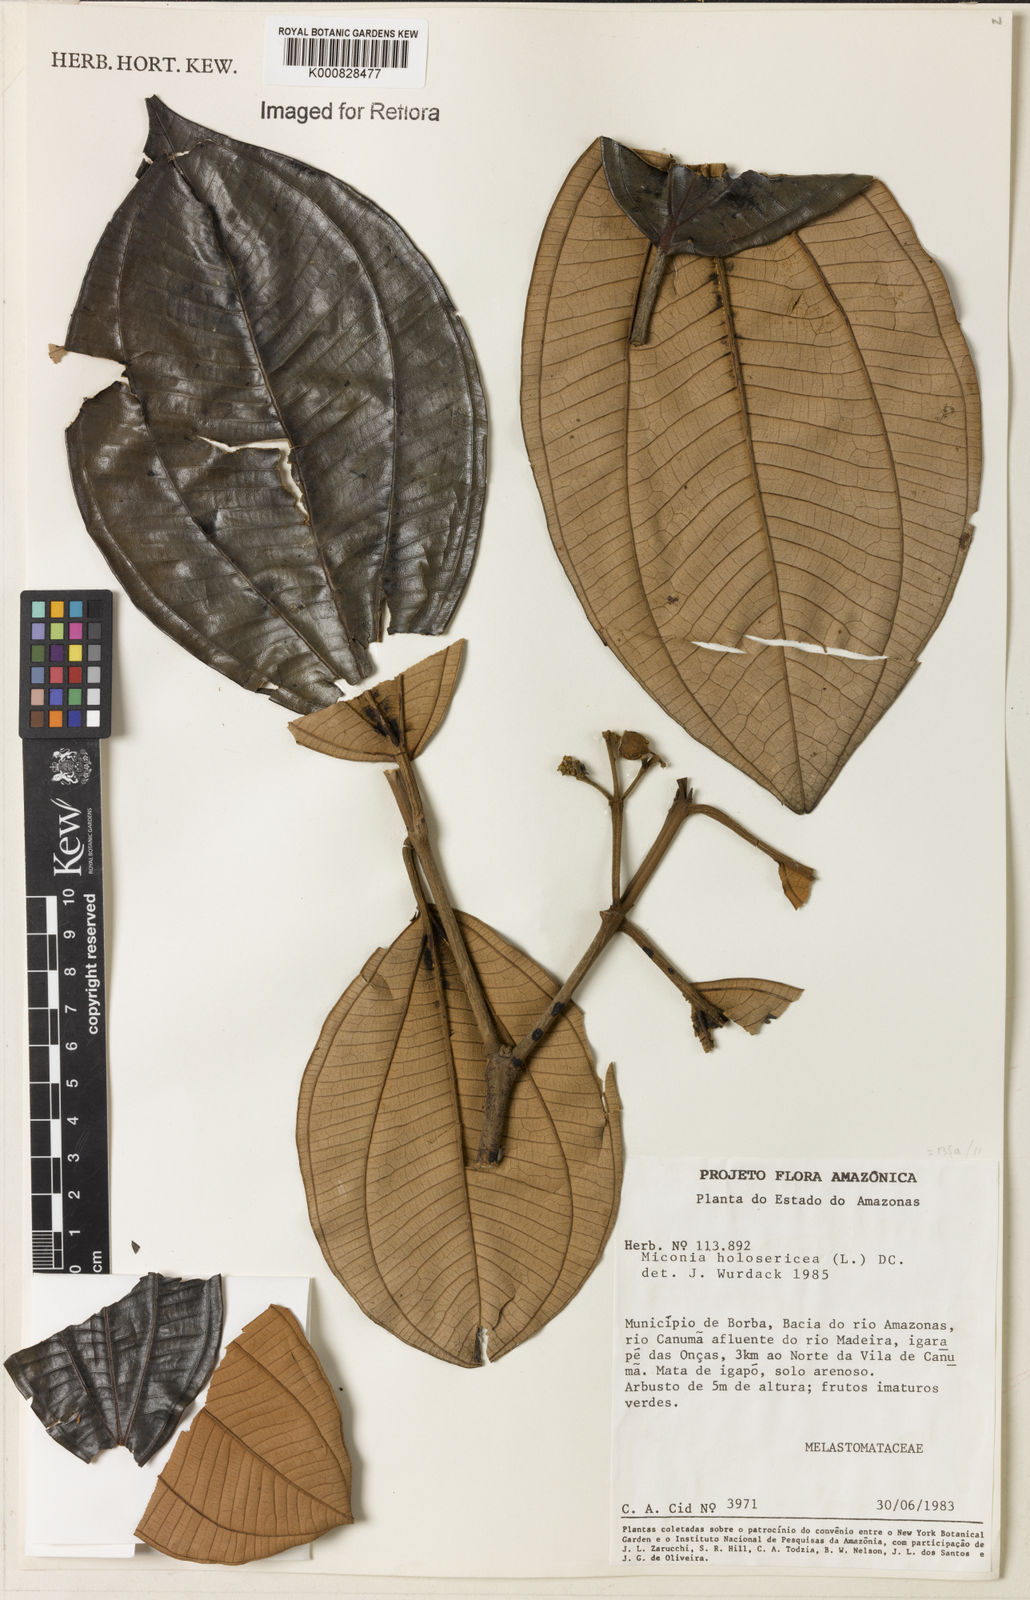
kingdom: Plantae
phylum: Tracheophyta
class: Magnoliopsida
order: Myrtales
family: Melastomataceae
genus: Miconia
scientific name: Miconia holosericea
